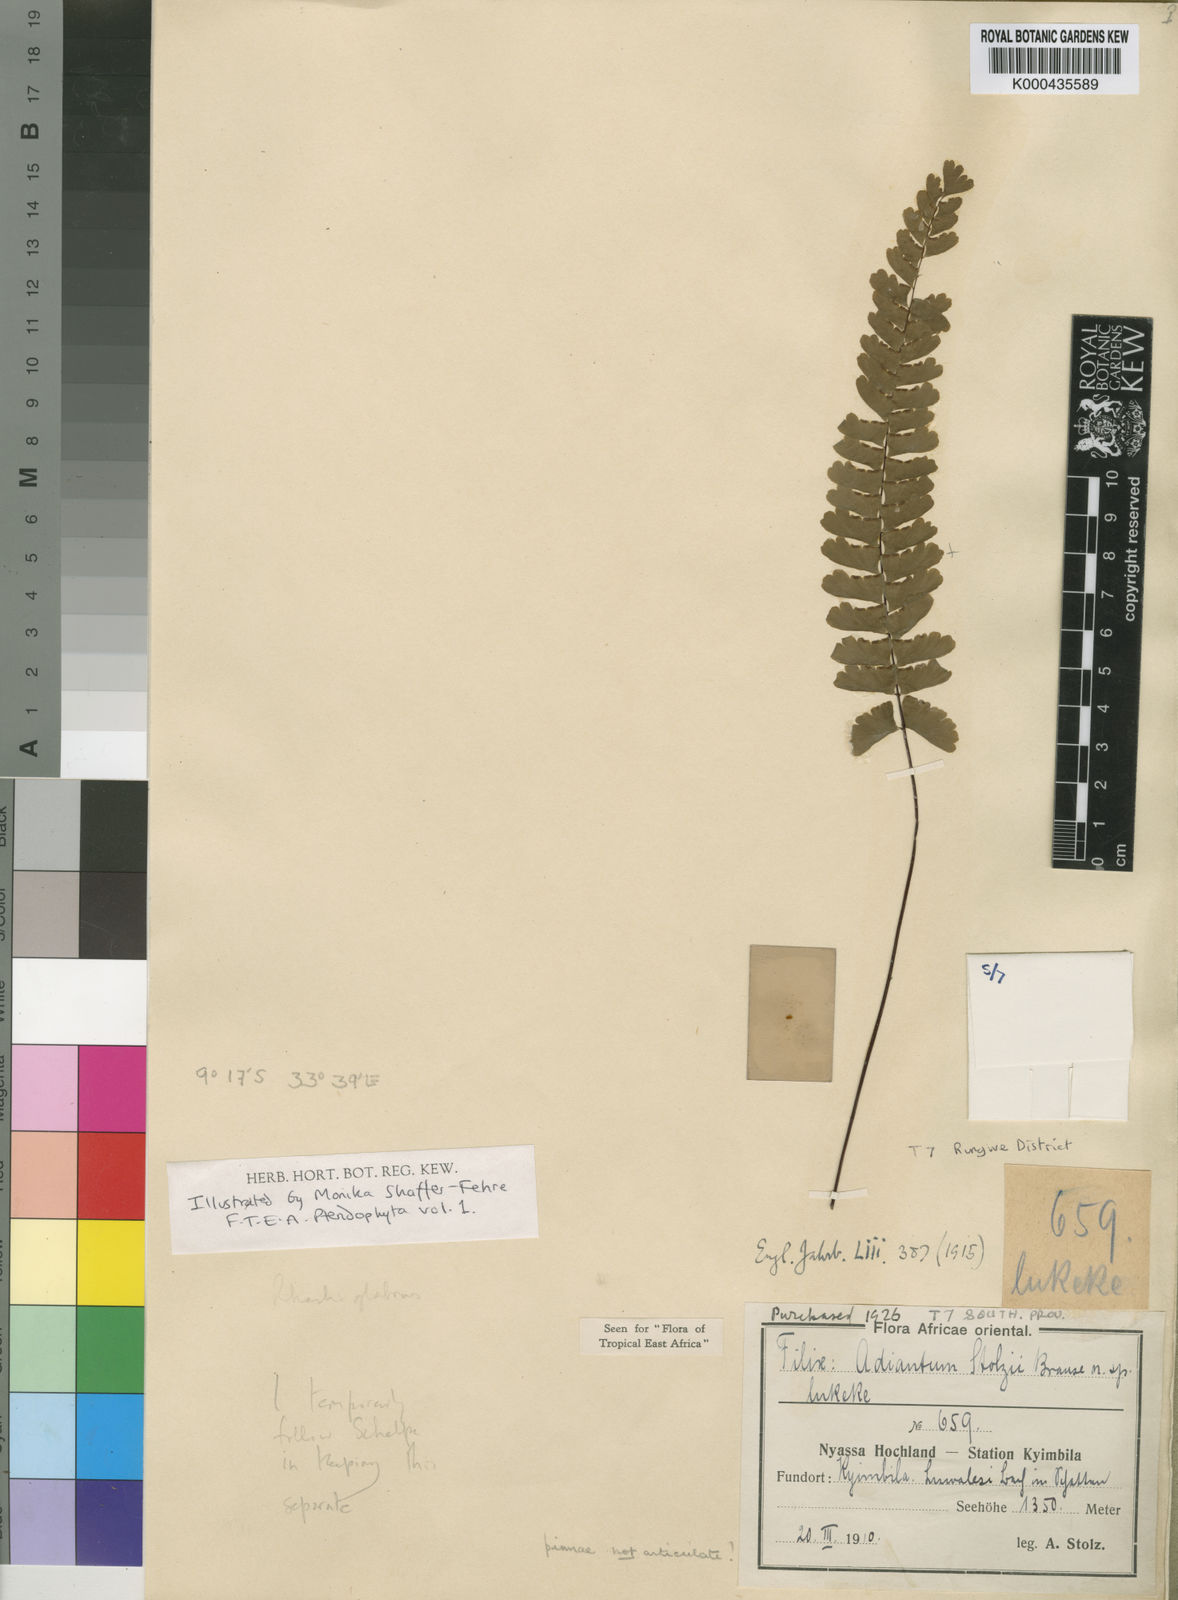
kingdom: Plantae
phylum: Tracheophyta
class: Polypodiopsida
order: Polypodiales
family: Pteridaceae
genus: Adiantum
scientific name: Adiantum stolzii
